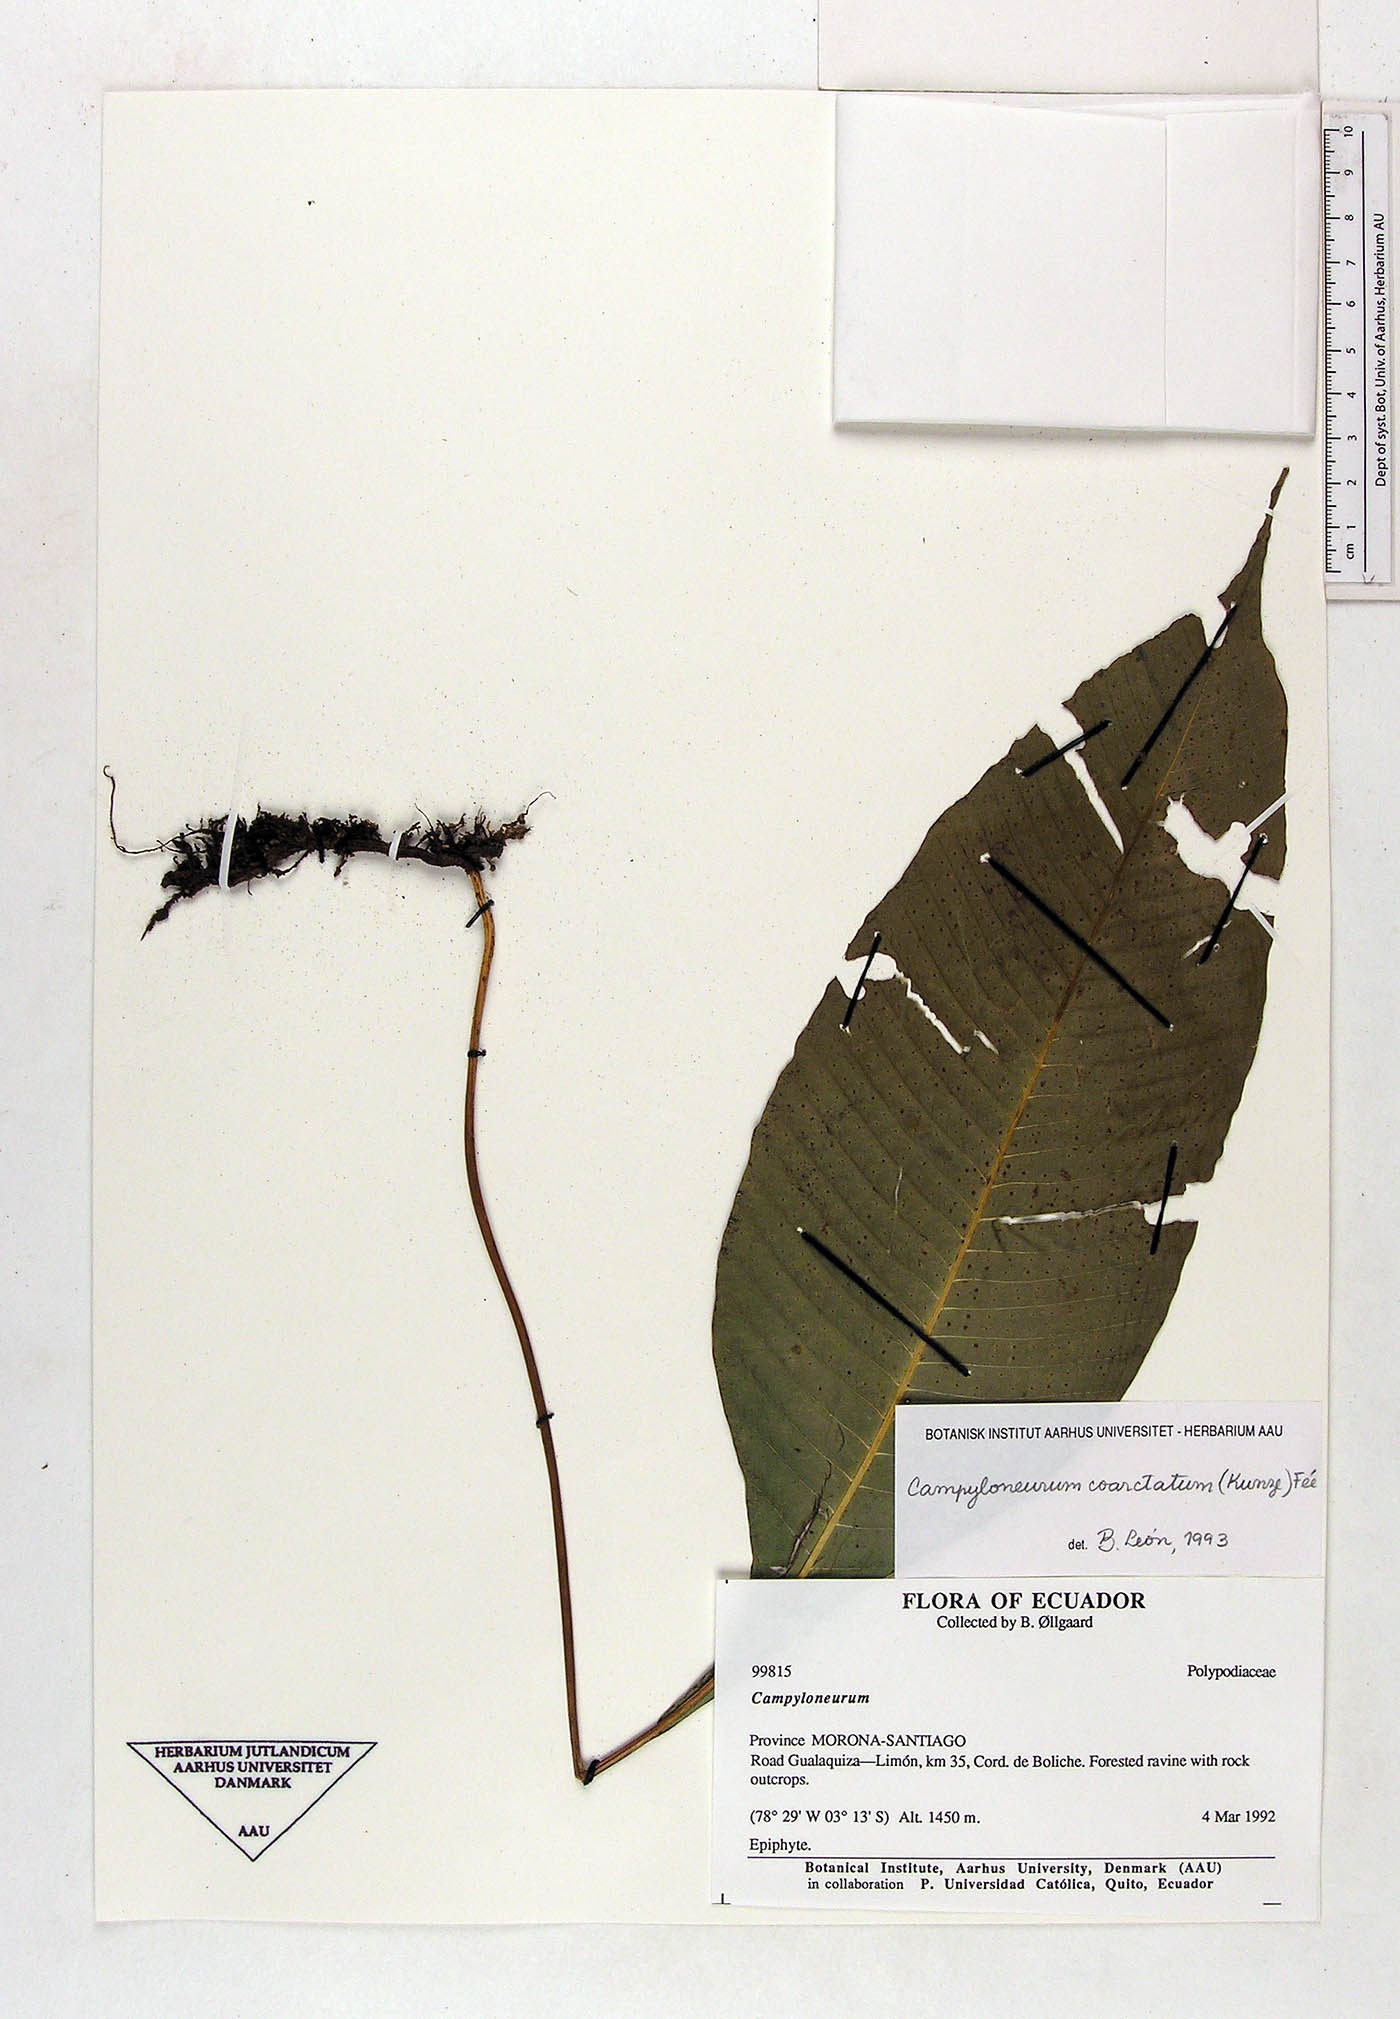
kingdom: Plantae
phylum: Tracheophyta
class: Polypodiopsida
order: Polypodiales
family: Polypodiaceae
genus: Campyloneurum
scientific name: Campyloneurum coarctatum
